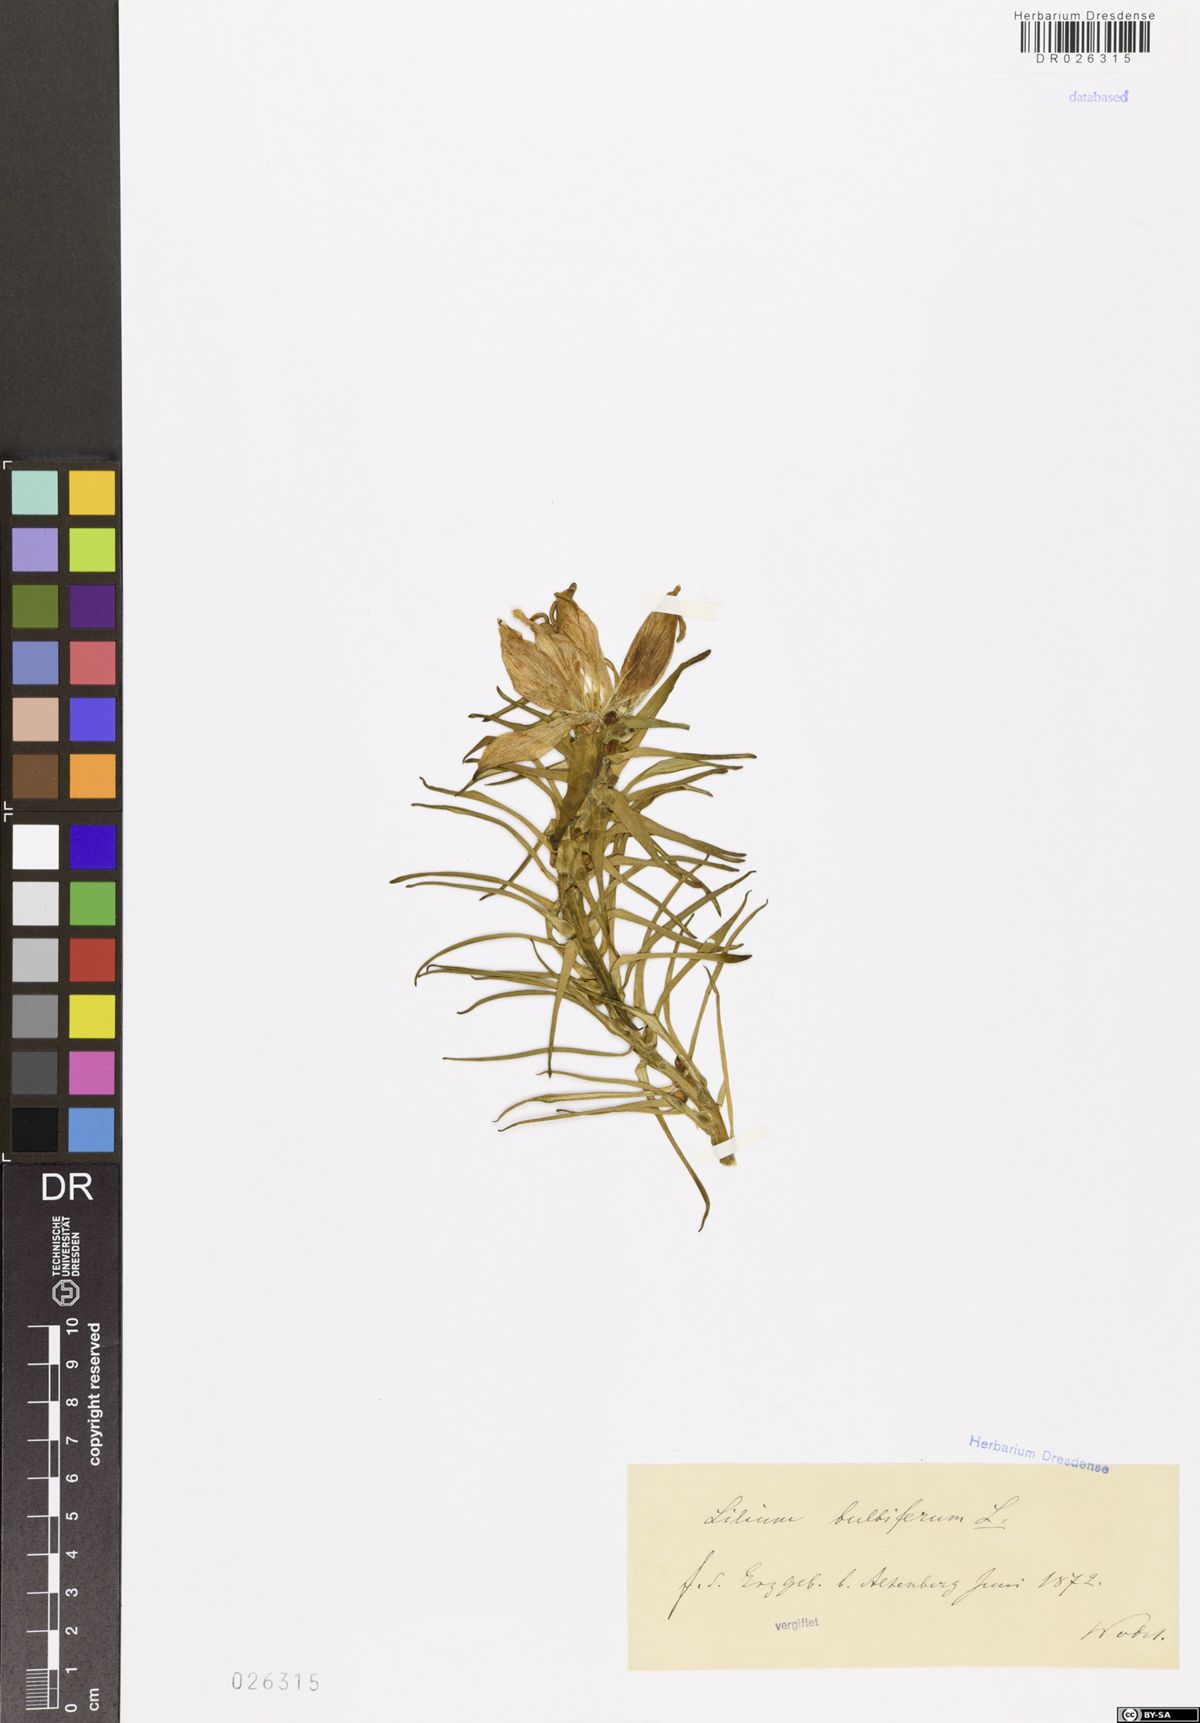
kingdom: Plantae
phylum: Tracheophyta
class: Liliopsida
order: Liliales
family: Liliaceae
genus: Lilium
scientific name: Lilium bulbiferum
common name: Orange lily
